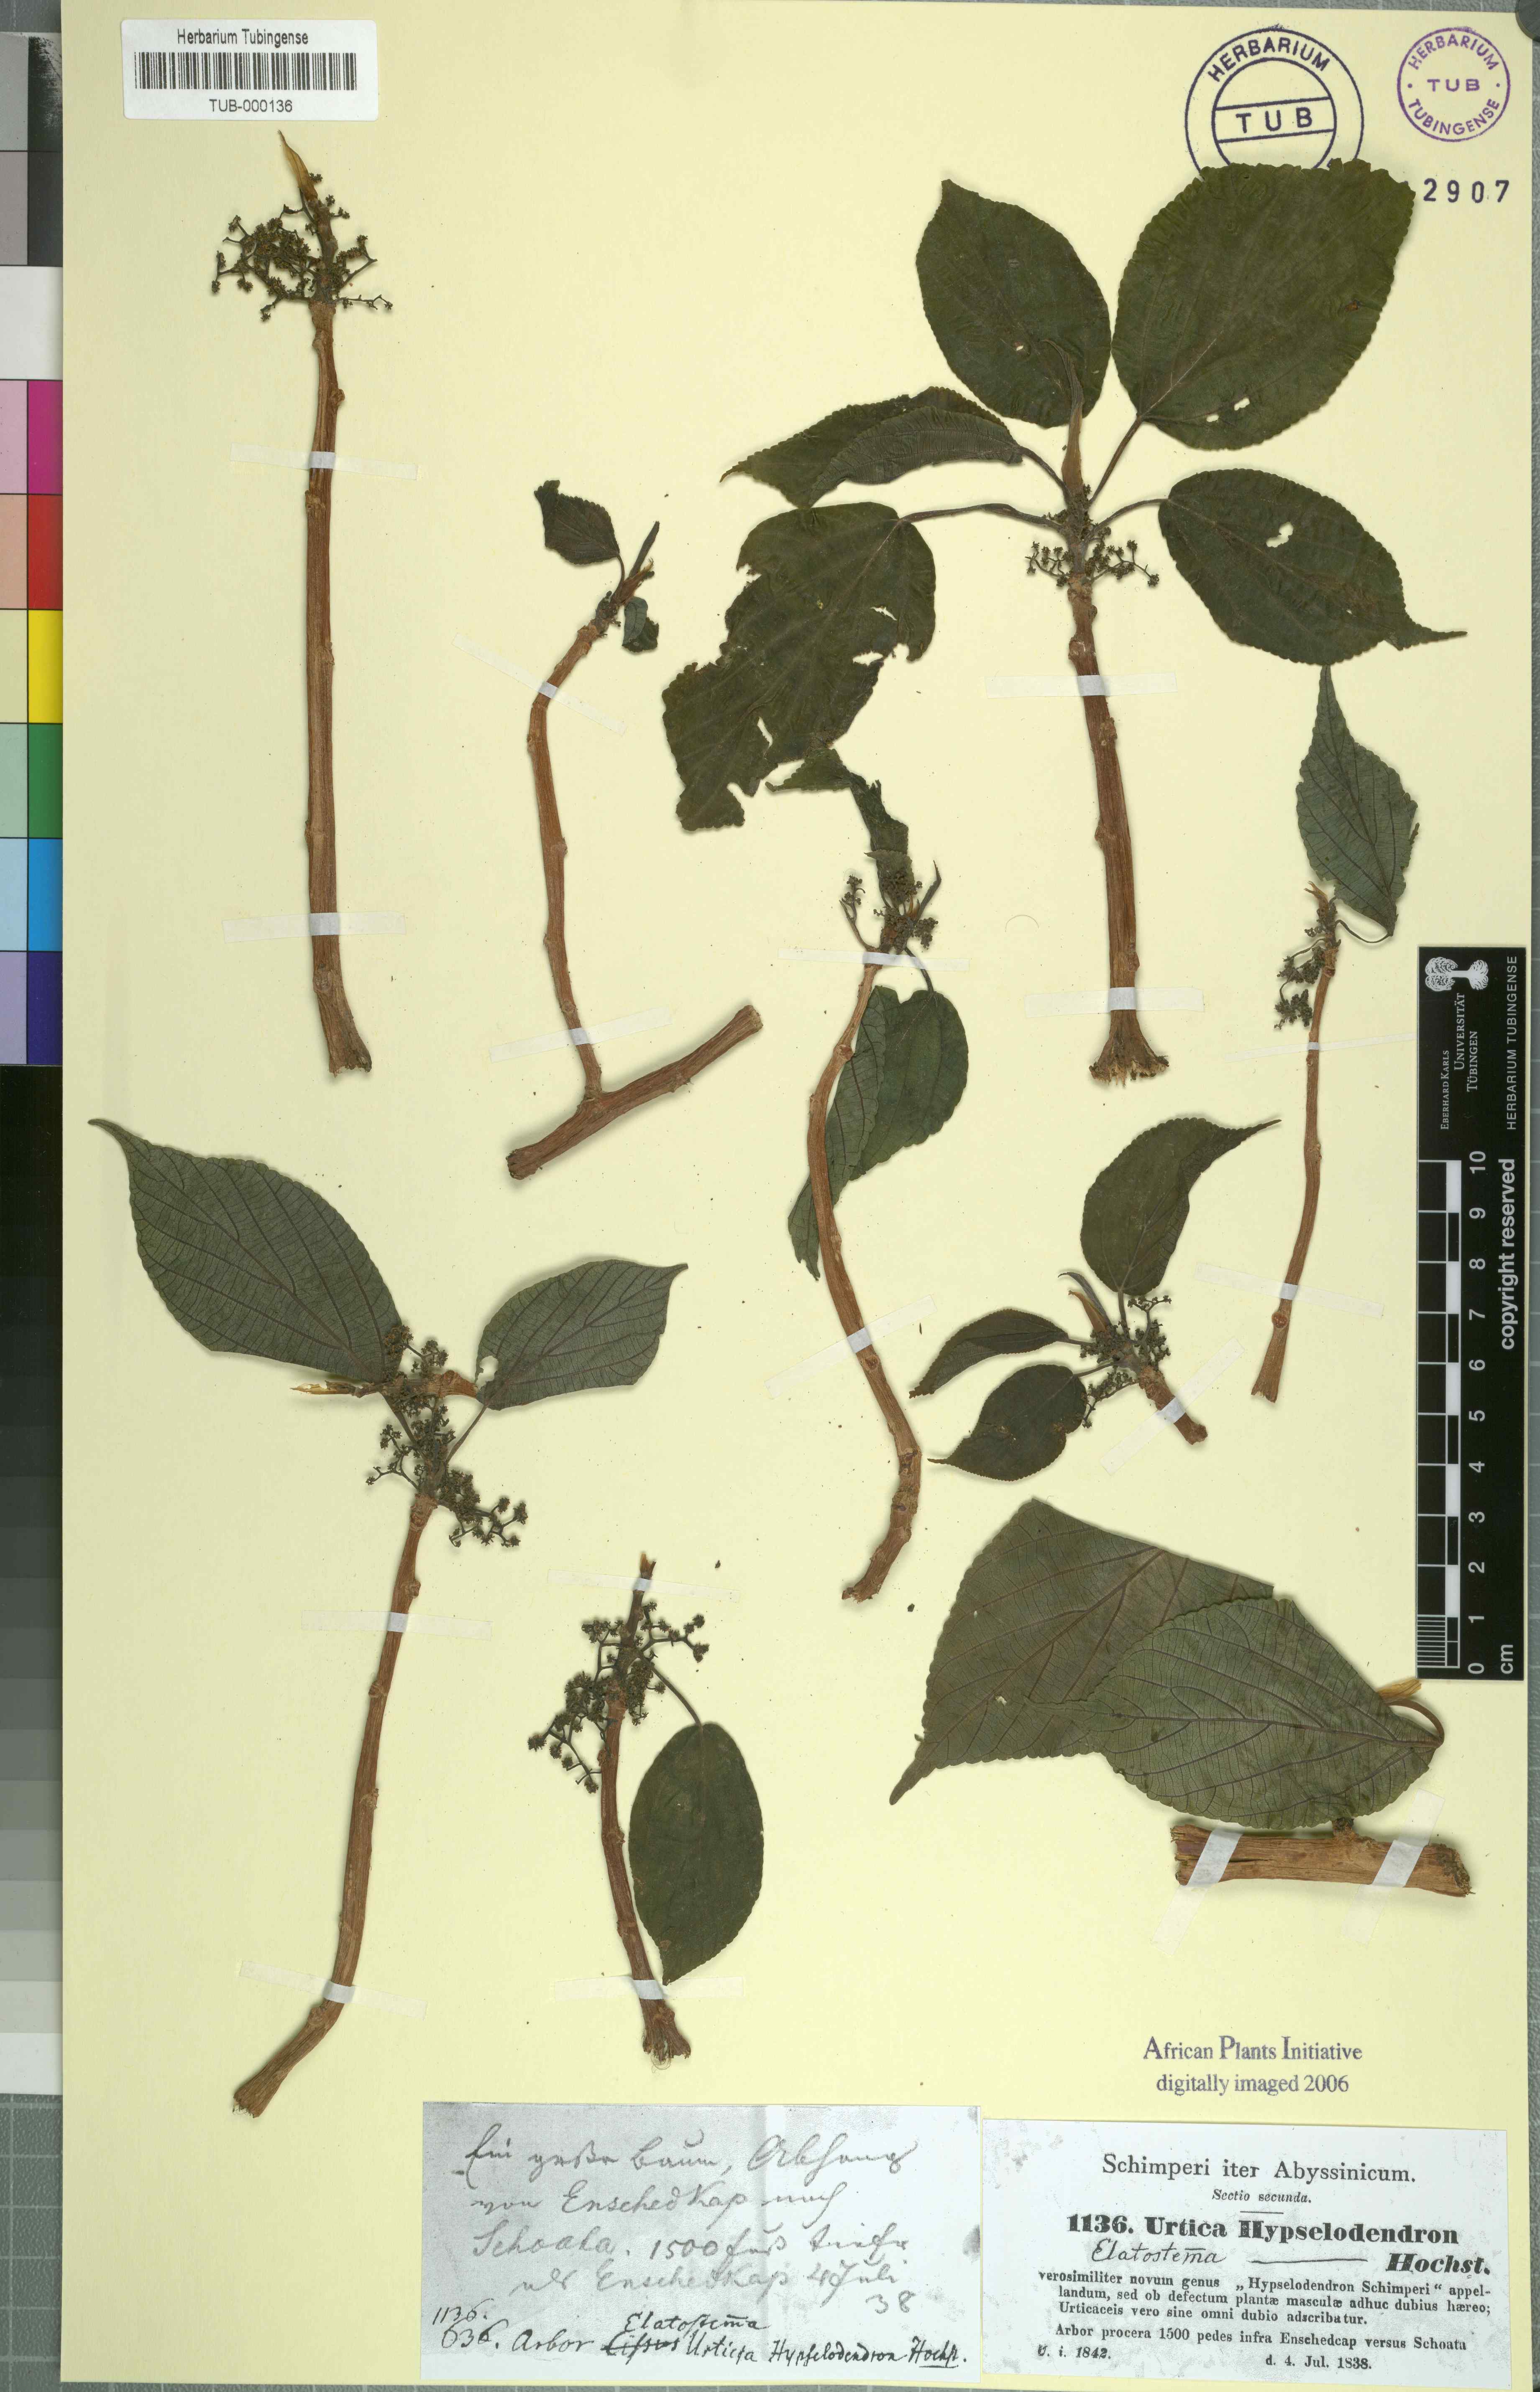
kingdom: Plantae
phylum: Tracheophyta
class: Magnoliopsida
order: Rosales
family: Urticaceae
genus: Scepocarpus
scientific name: Scepocarpus hypselodendron
